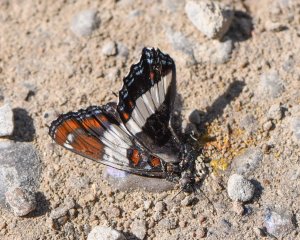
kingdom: Animalia
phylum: Arthropoda
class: Insecta
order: Lepidoptera
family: Nymphalidae
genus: Limenitis
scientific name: Limenitis arthemis
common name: Red-spotted Admiral
